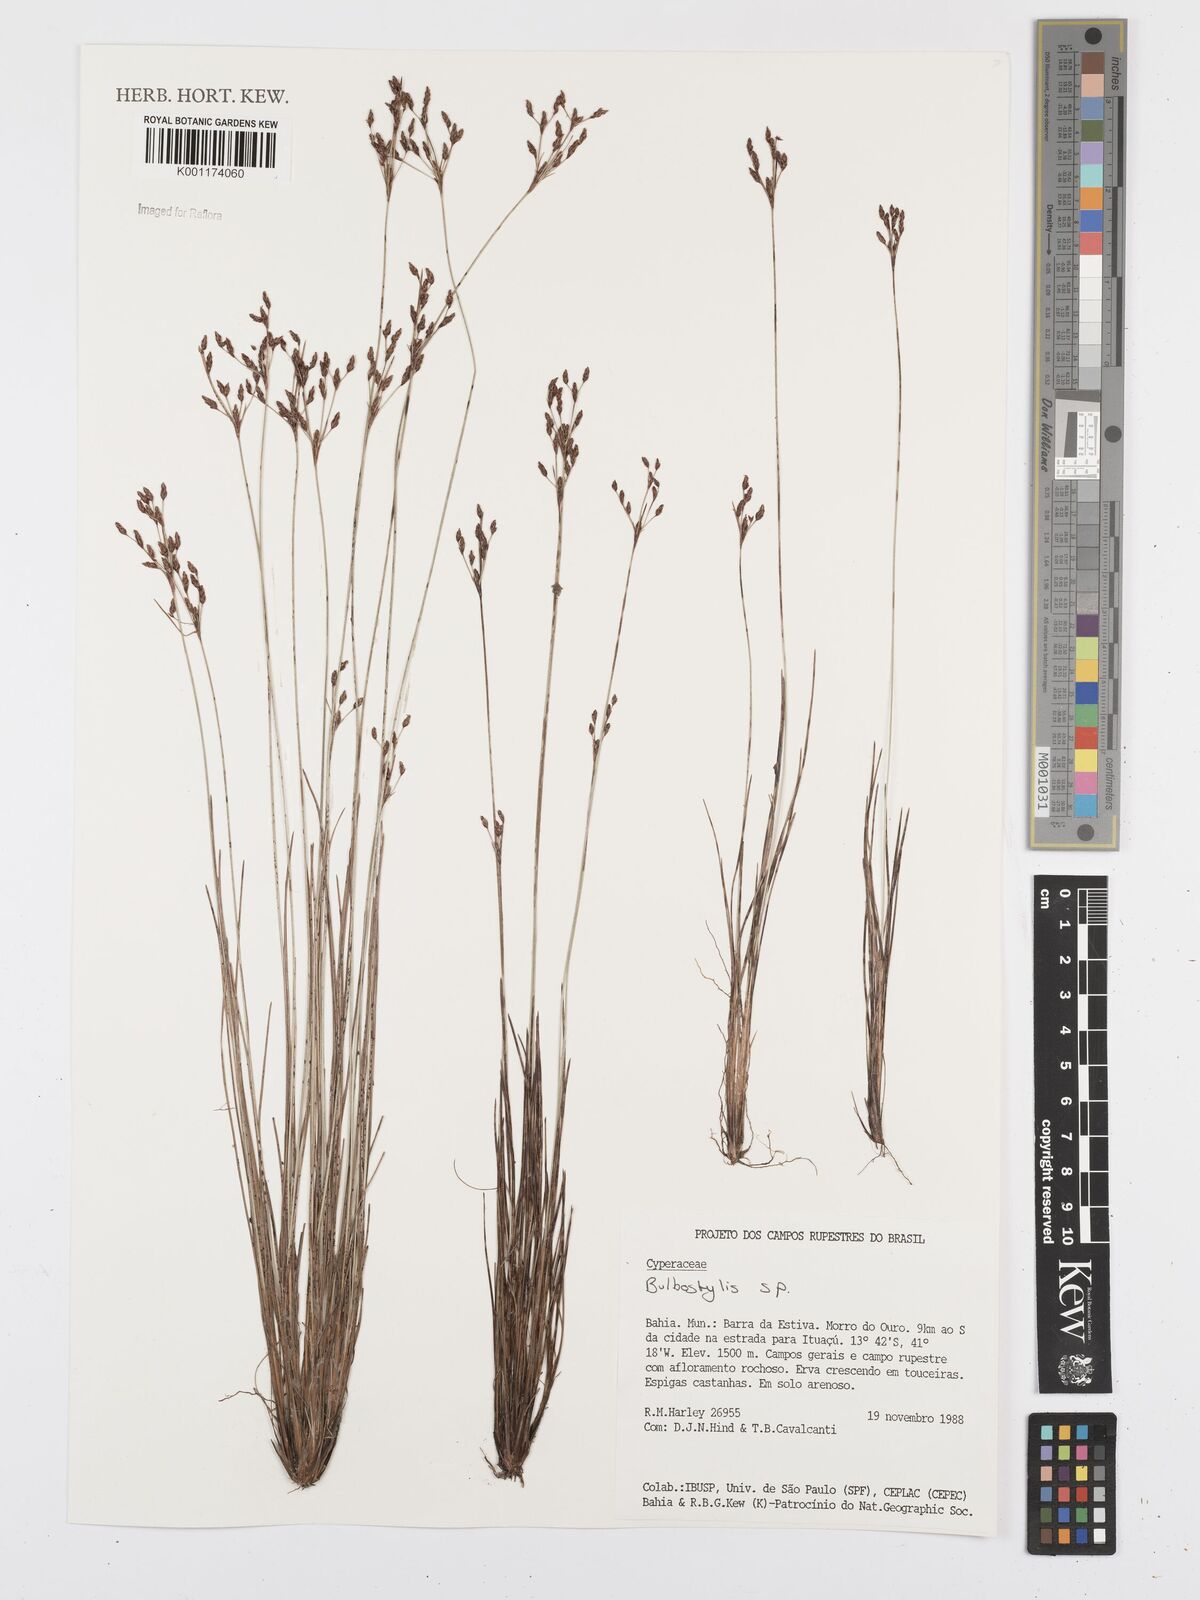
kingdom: Plantae
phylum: Tracheophyta
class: Liliopsida
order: Poales
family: Cyperaceae
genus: Bulbostylis
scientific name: Bulbostylis
